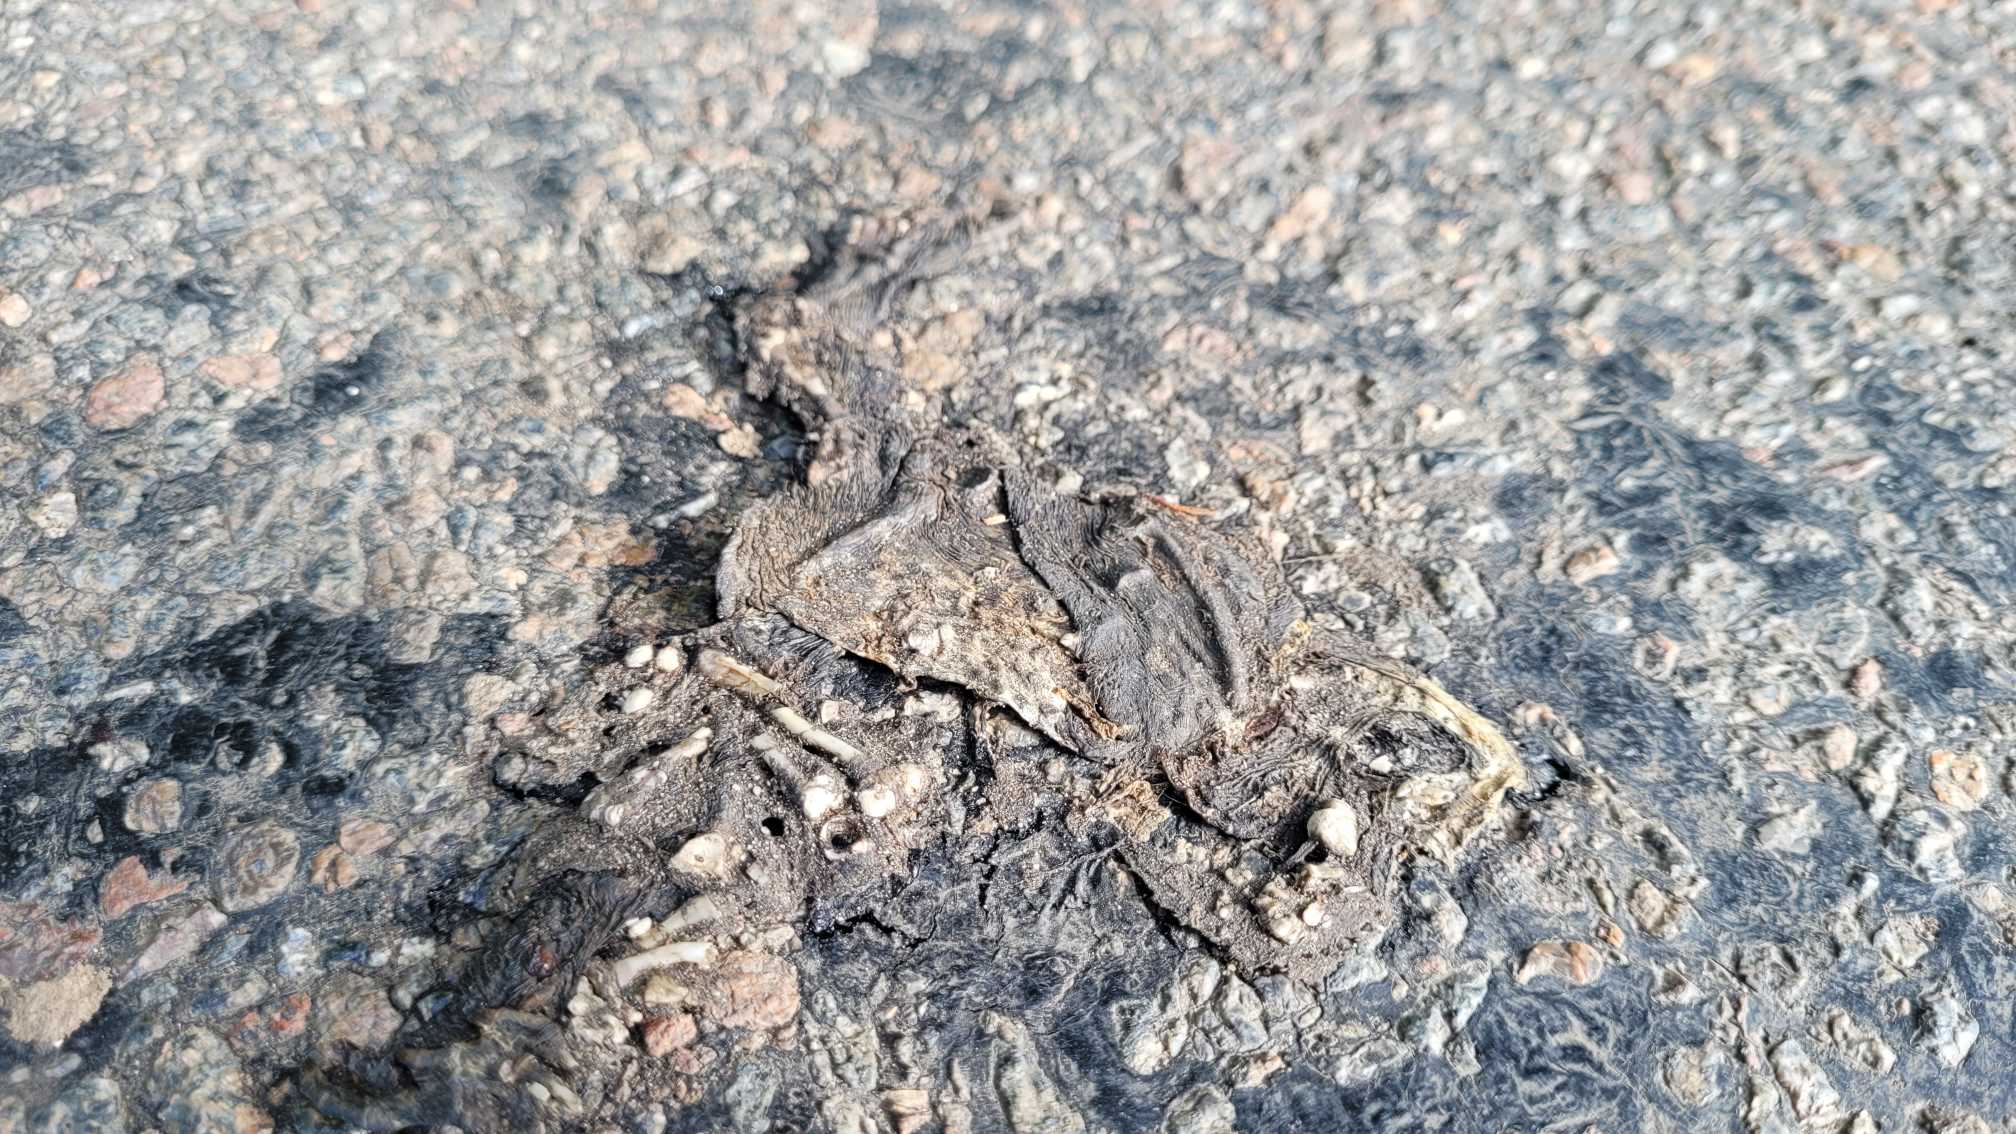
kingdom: Animalia
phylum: Chordata
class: Amphibia
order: Anura
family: Bufonidae
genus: Bufo
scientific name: Bufo bufo
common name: Skrubtudse
